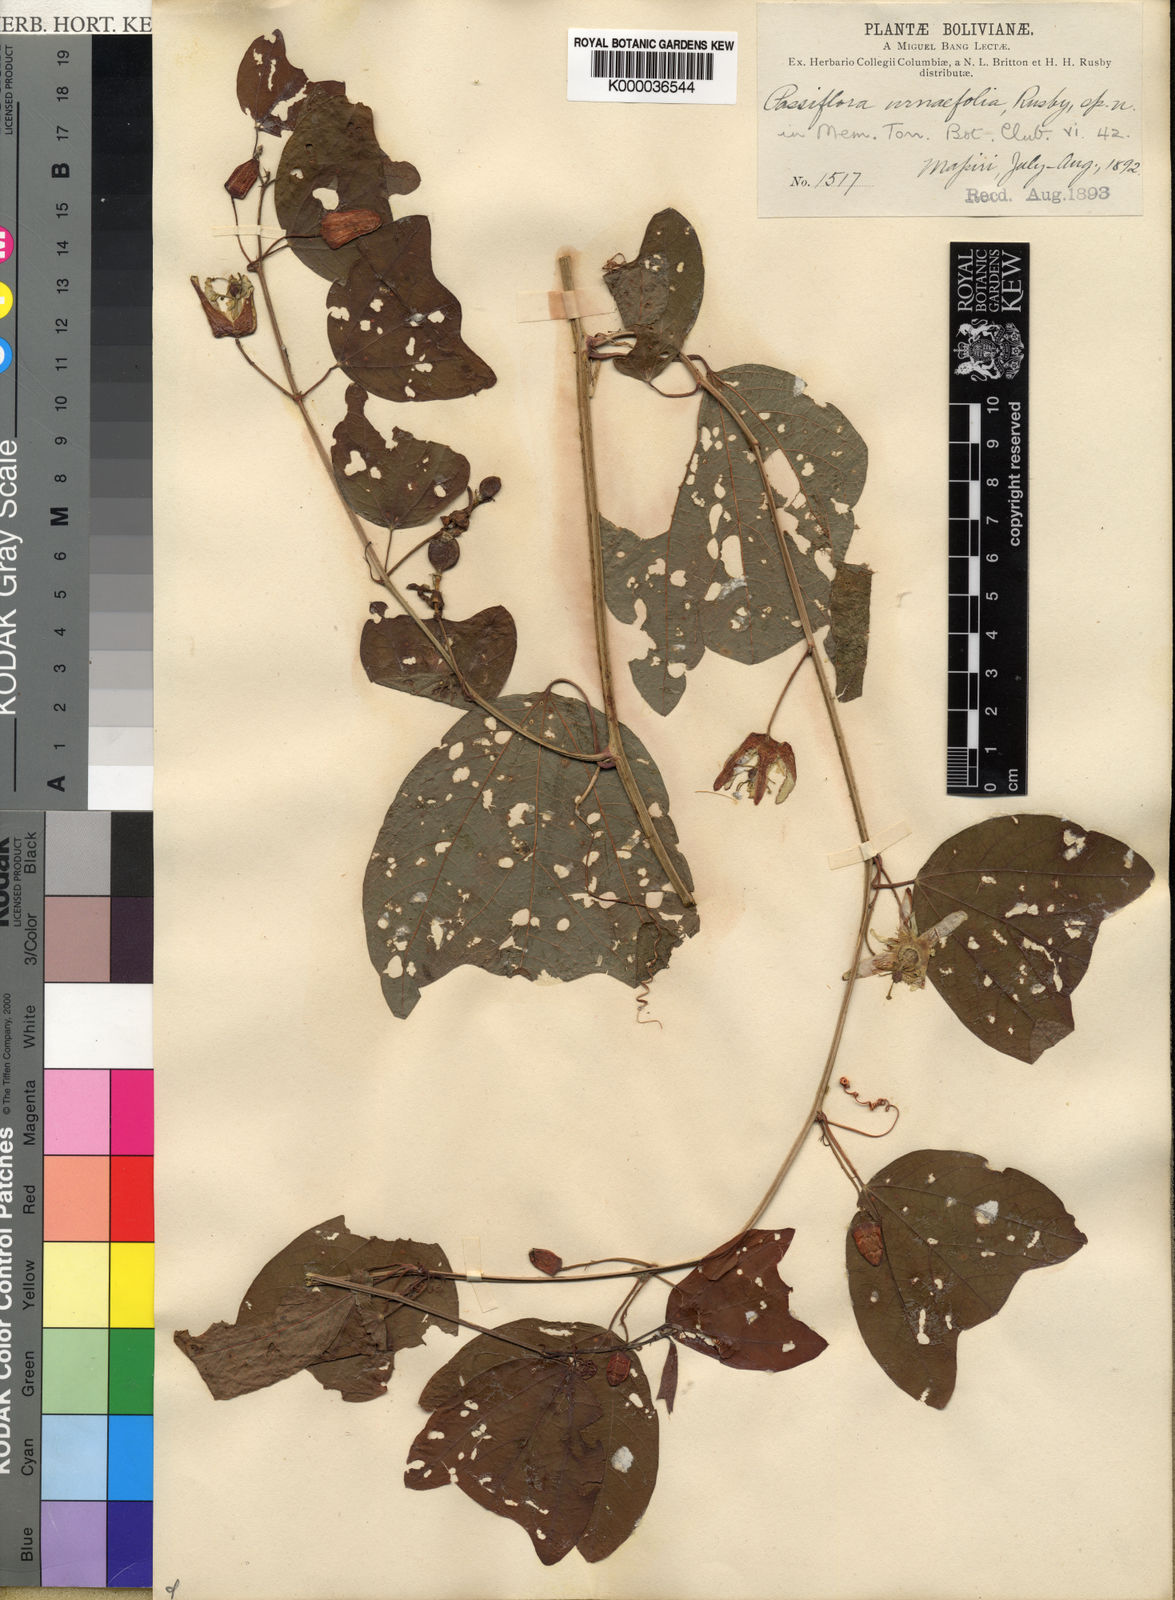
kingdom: Plantae
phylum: Tracheophyta
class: Magnoliopsida
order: Malpighiales
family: Passifloraceae
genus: Passiflora
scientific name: Passiflora urnifolia
